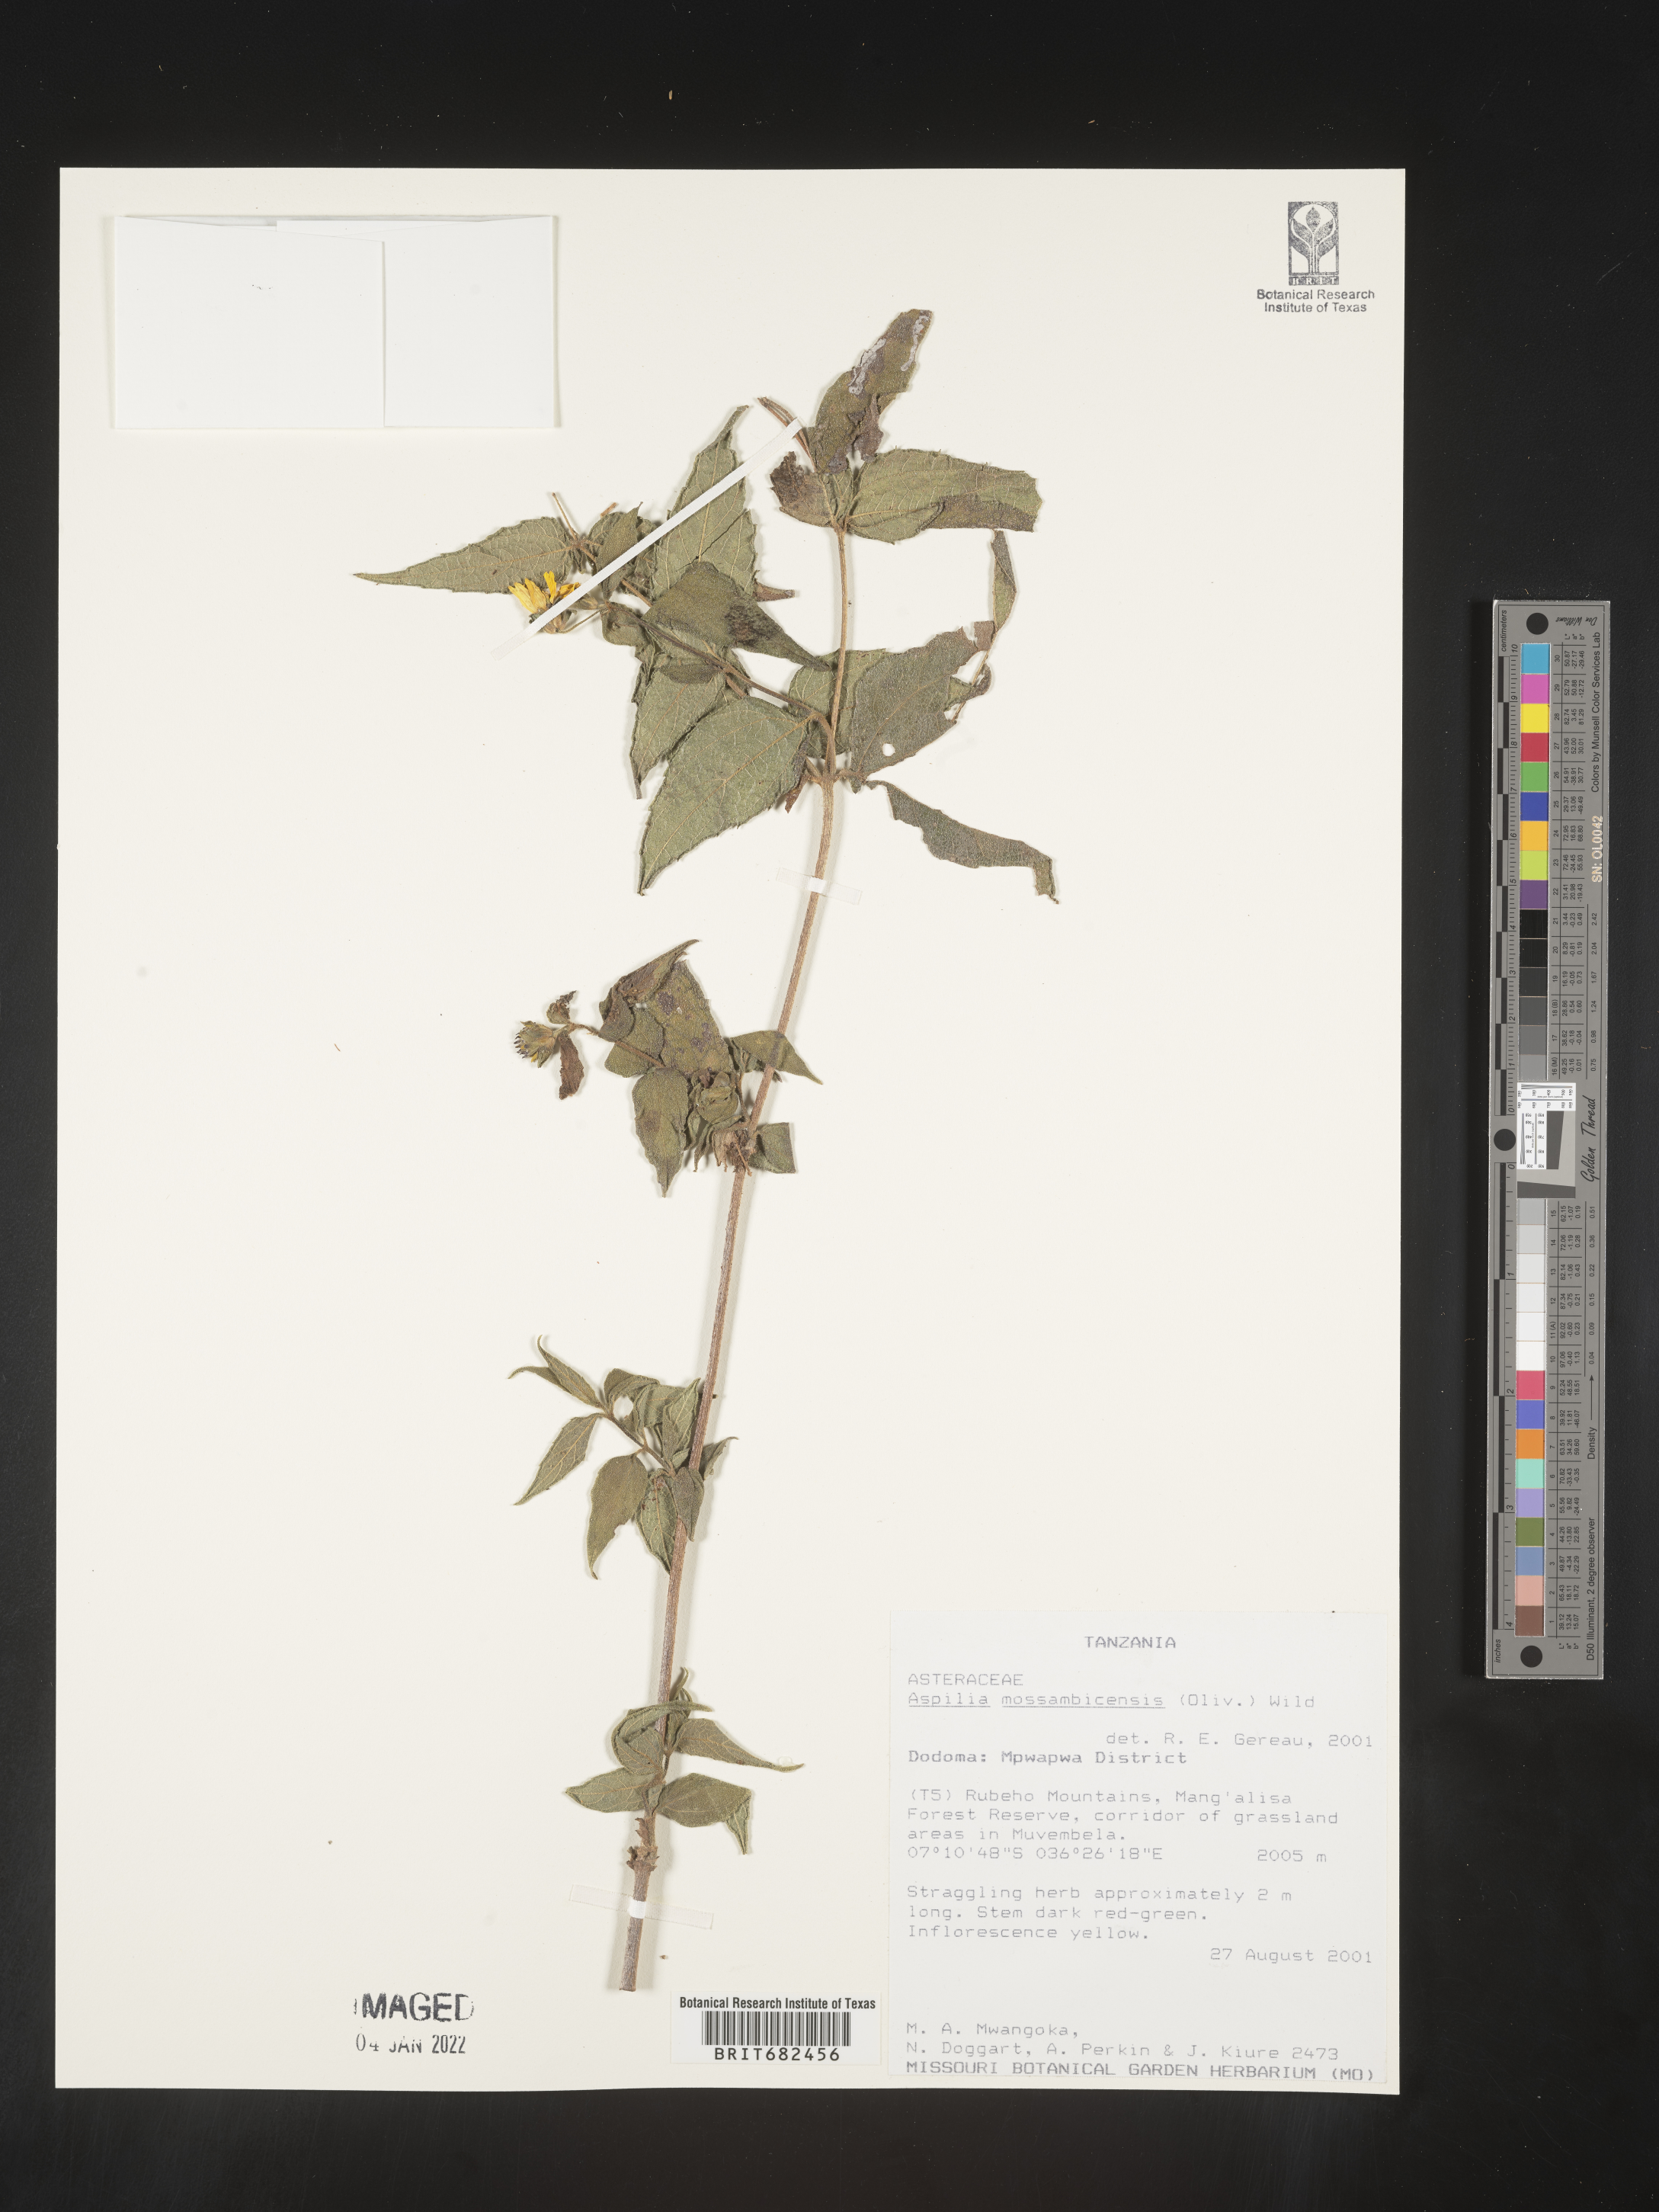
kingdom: Plantae
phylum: Tracheophyta
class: Magnoliopsida
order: Asterales
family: Asteraceae
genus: Aspilia
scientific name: Aspilia
